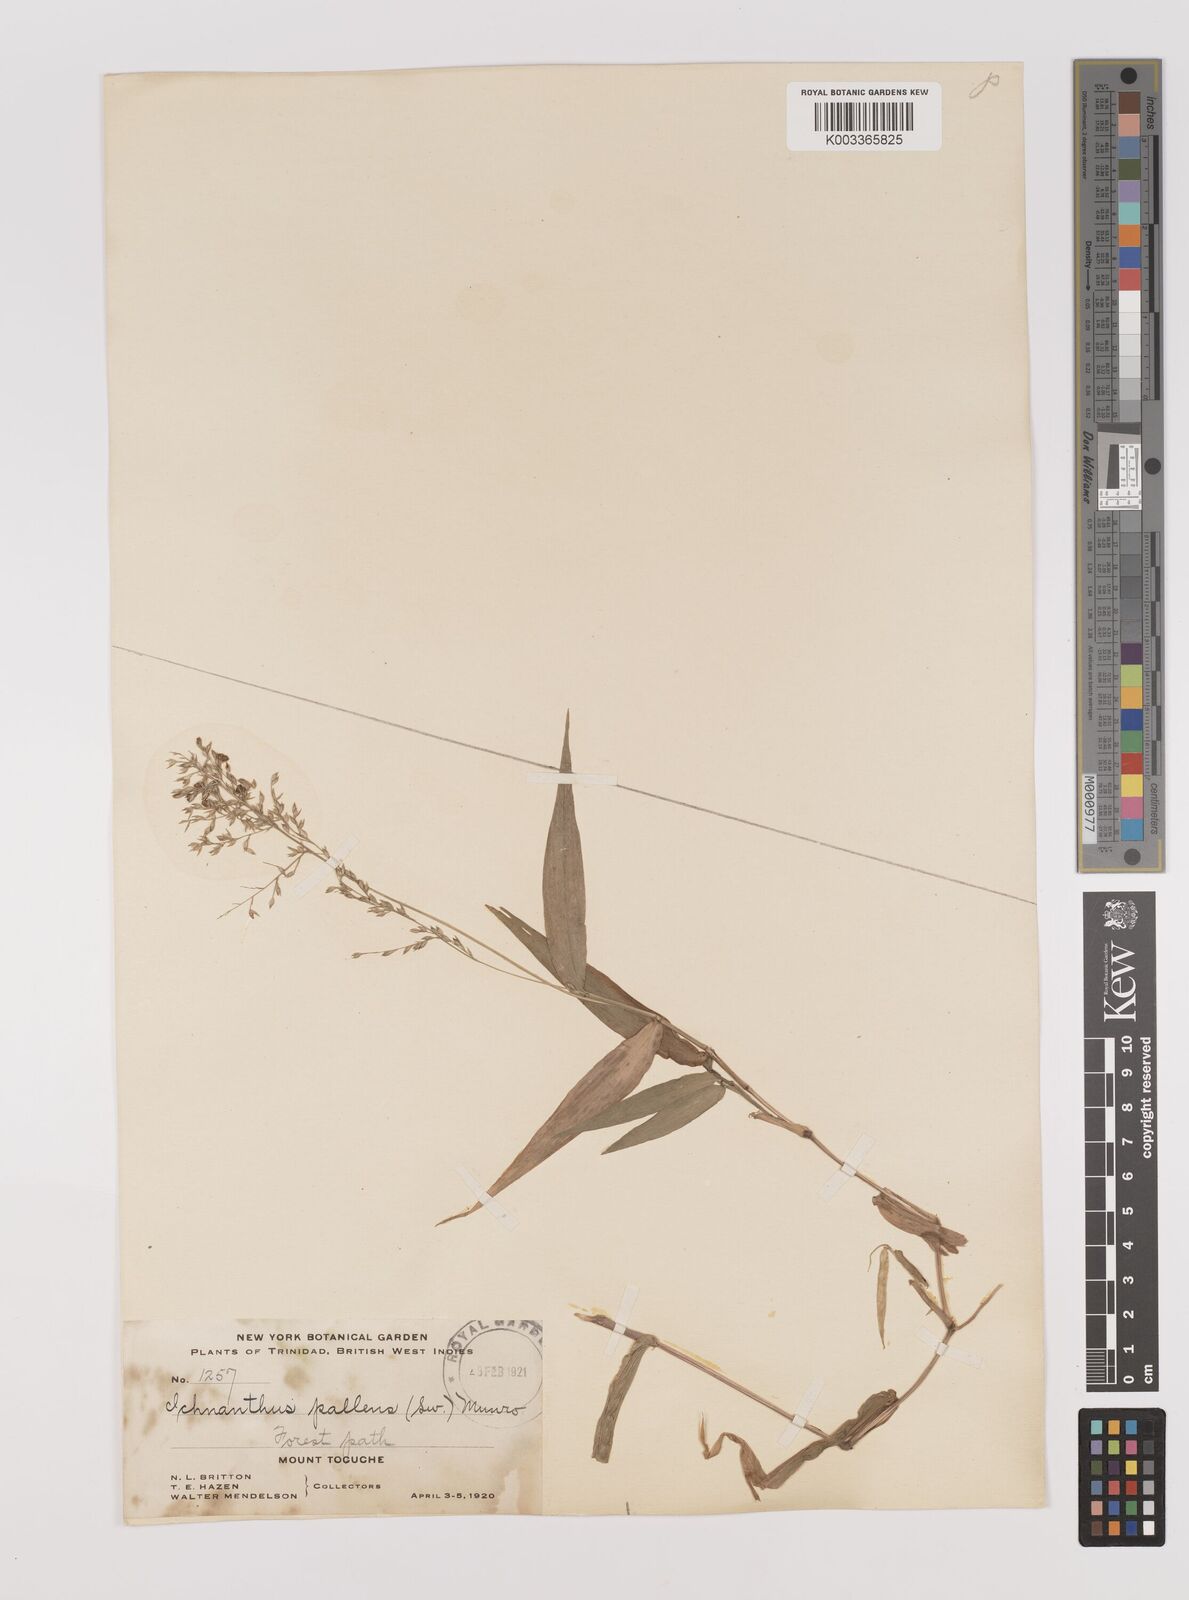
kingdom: Plantae
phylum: Tracheophyta
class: Liliopsida
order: Poales
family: Poaceae
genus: Ichnanthus
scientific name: Ichnanthus pallens
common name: Water grass
